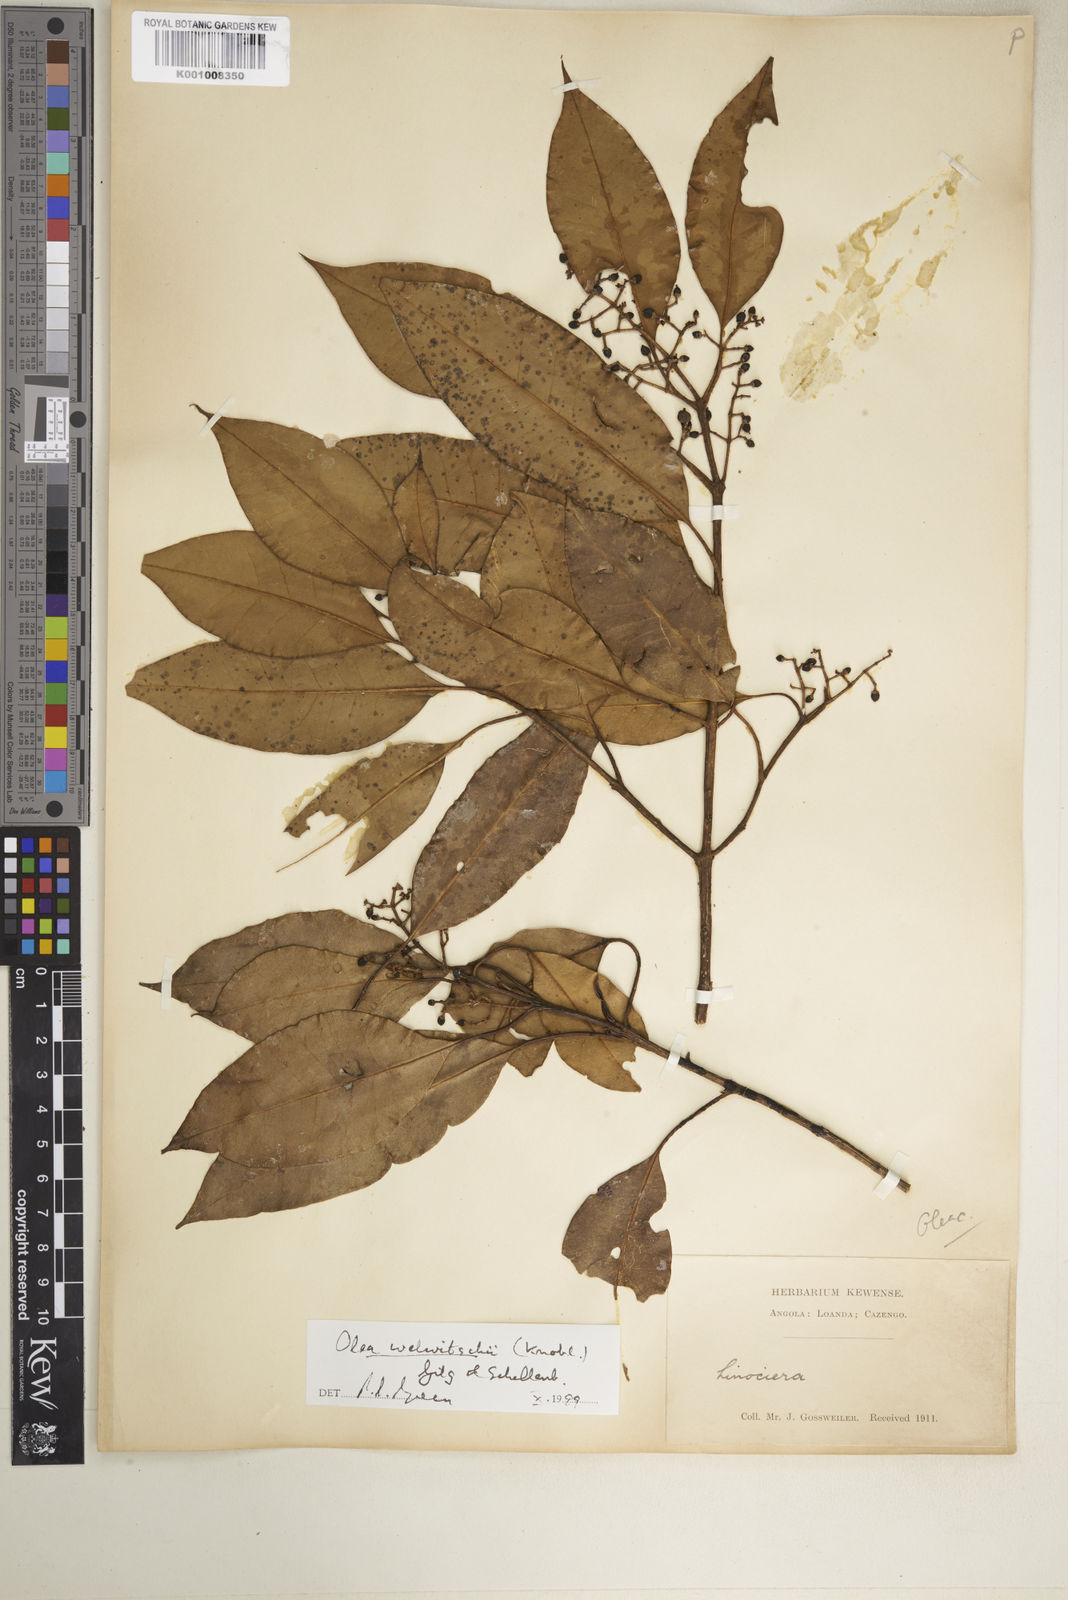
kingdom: Plantae
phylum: Tracheophyta
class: Magnoliopsida
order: Lamiales
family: Oleaceae
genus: Olea
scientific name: Olea welwitschii
